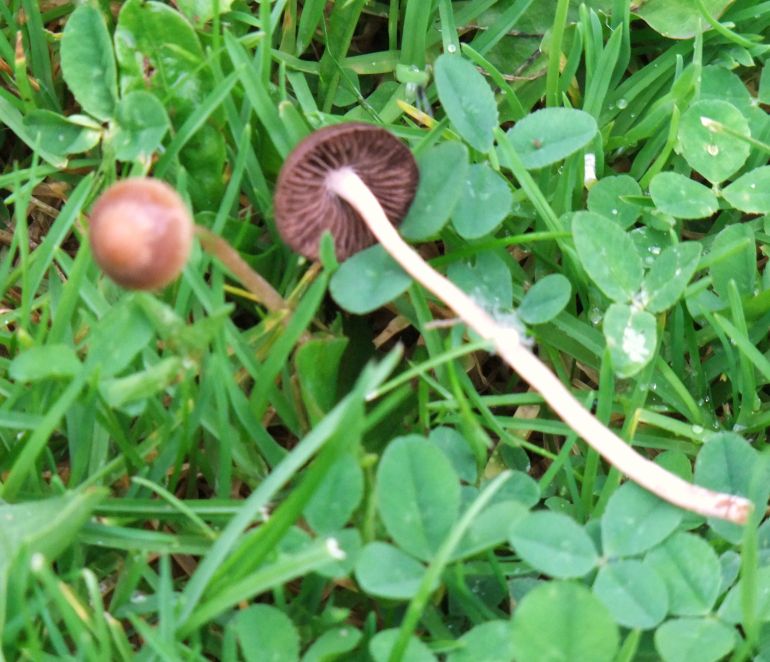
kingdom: Fungi
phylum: Basidiomycota
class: Agaricomycetes
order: Agaricales
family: Bolbitiaceae
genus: Panaeolina
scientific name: Panaeolina foenisecii
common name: høslætsvamp
